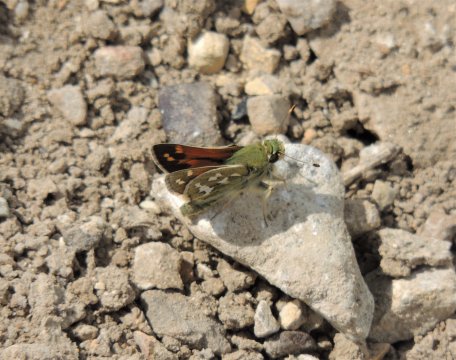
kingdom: Animalia
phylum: Arthropoda
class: Insecta
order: Lepidoptera
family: Hesperiidae
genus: Hesperia
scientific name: Hesperia juba
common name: Juba Skipper
